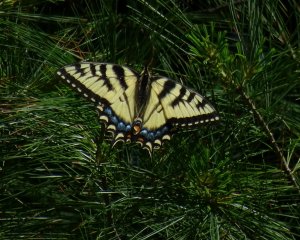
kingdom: Animalia
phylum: Arthropoda
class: Insecta
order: Lepidoptera
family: Papilionidae
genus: Pterourus
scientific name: Pterourus glaucus
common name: Eastern Tiger Swallowtail
